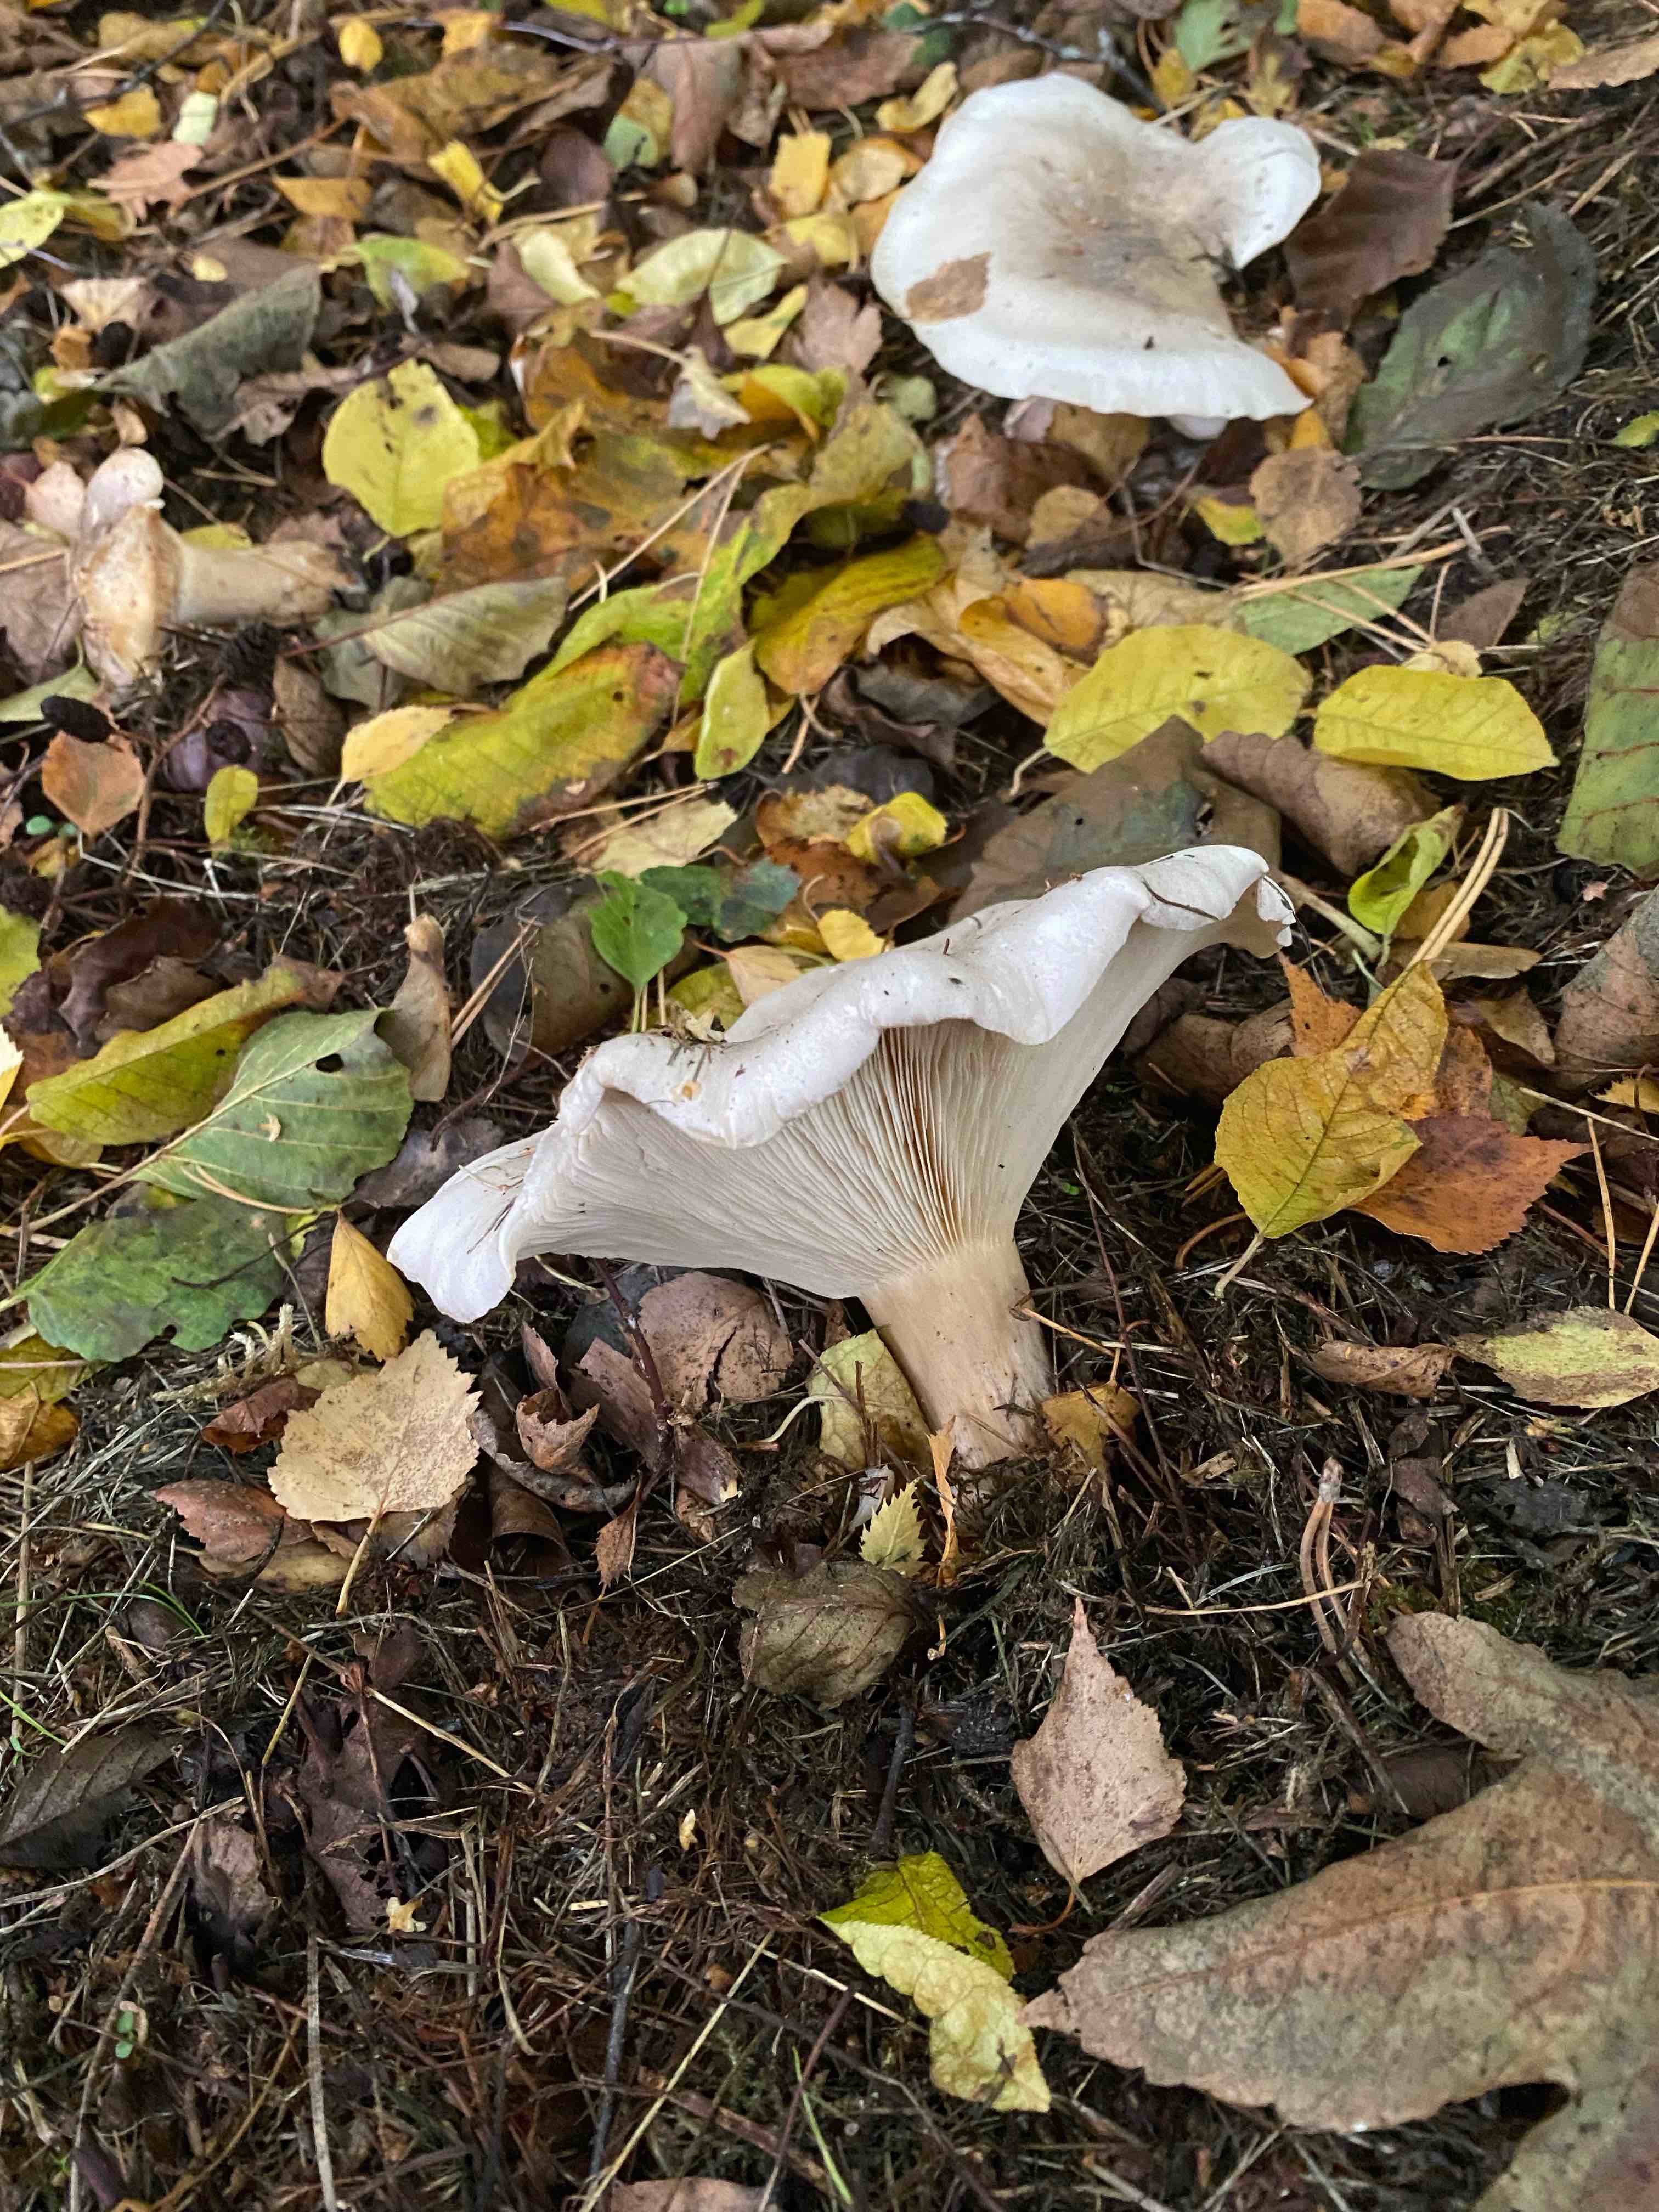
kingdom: Fungi
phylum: Basidiomycota
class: Agaricomycetes
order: Agaricales
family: Tricholomataceae
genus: Clitocybe
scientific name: Clitocybe nebularis
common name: tåge-tragthat
